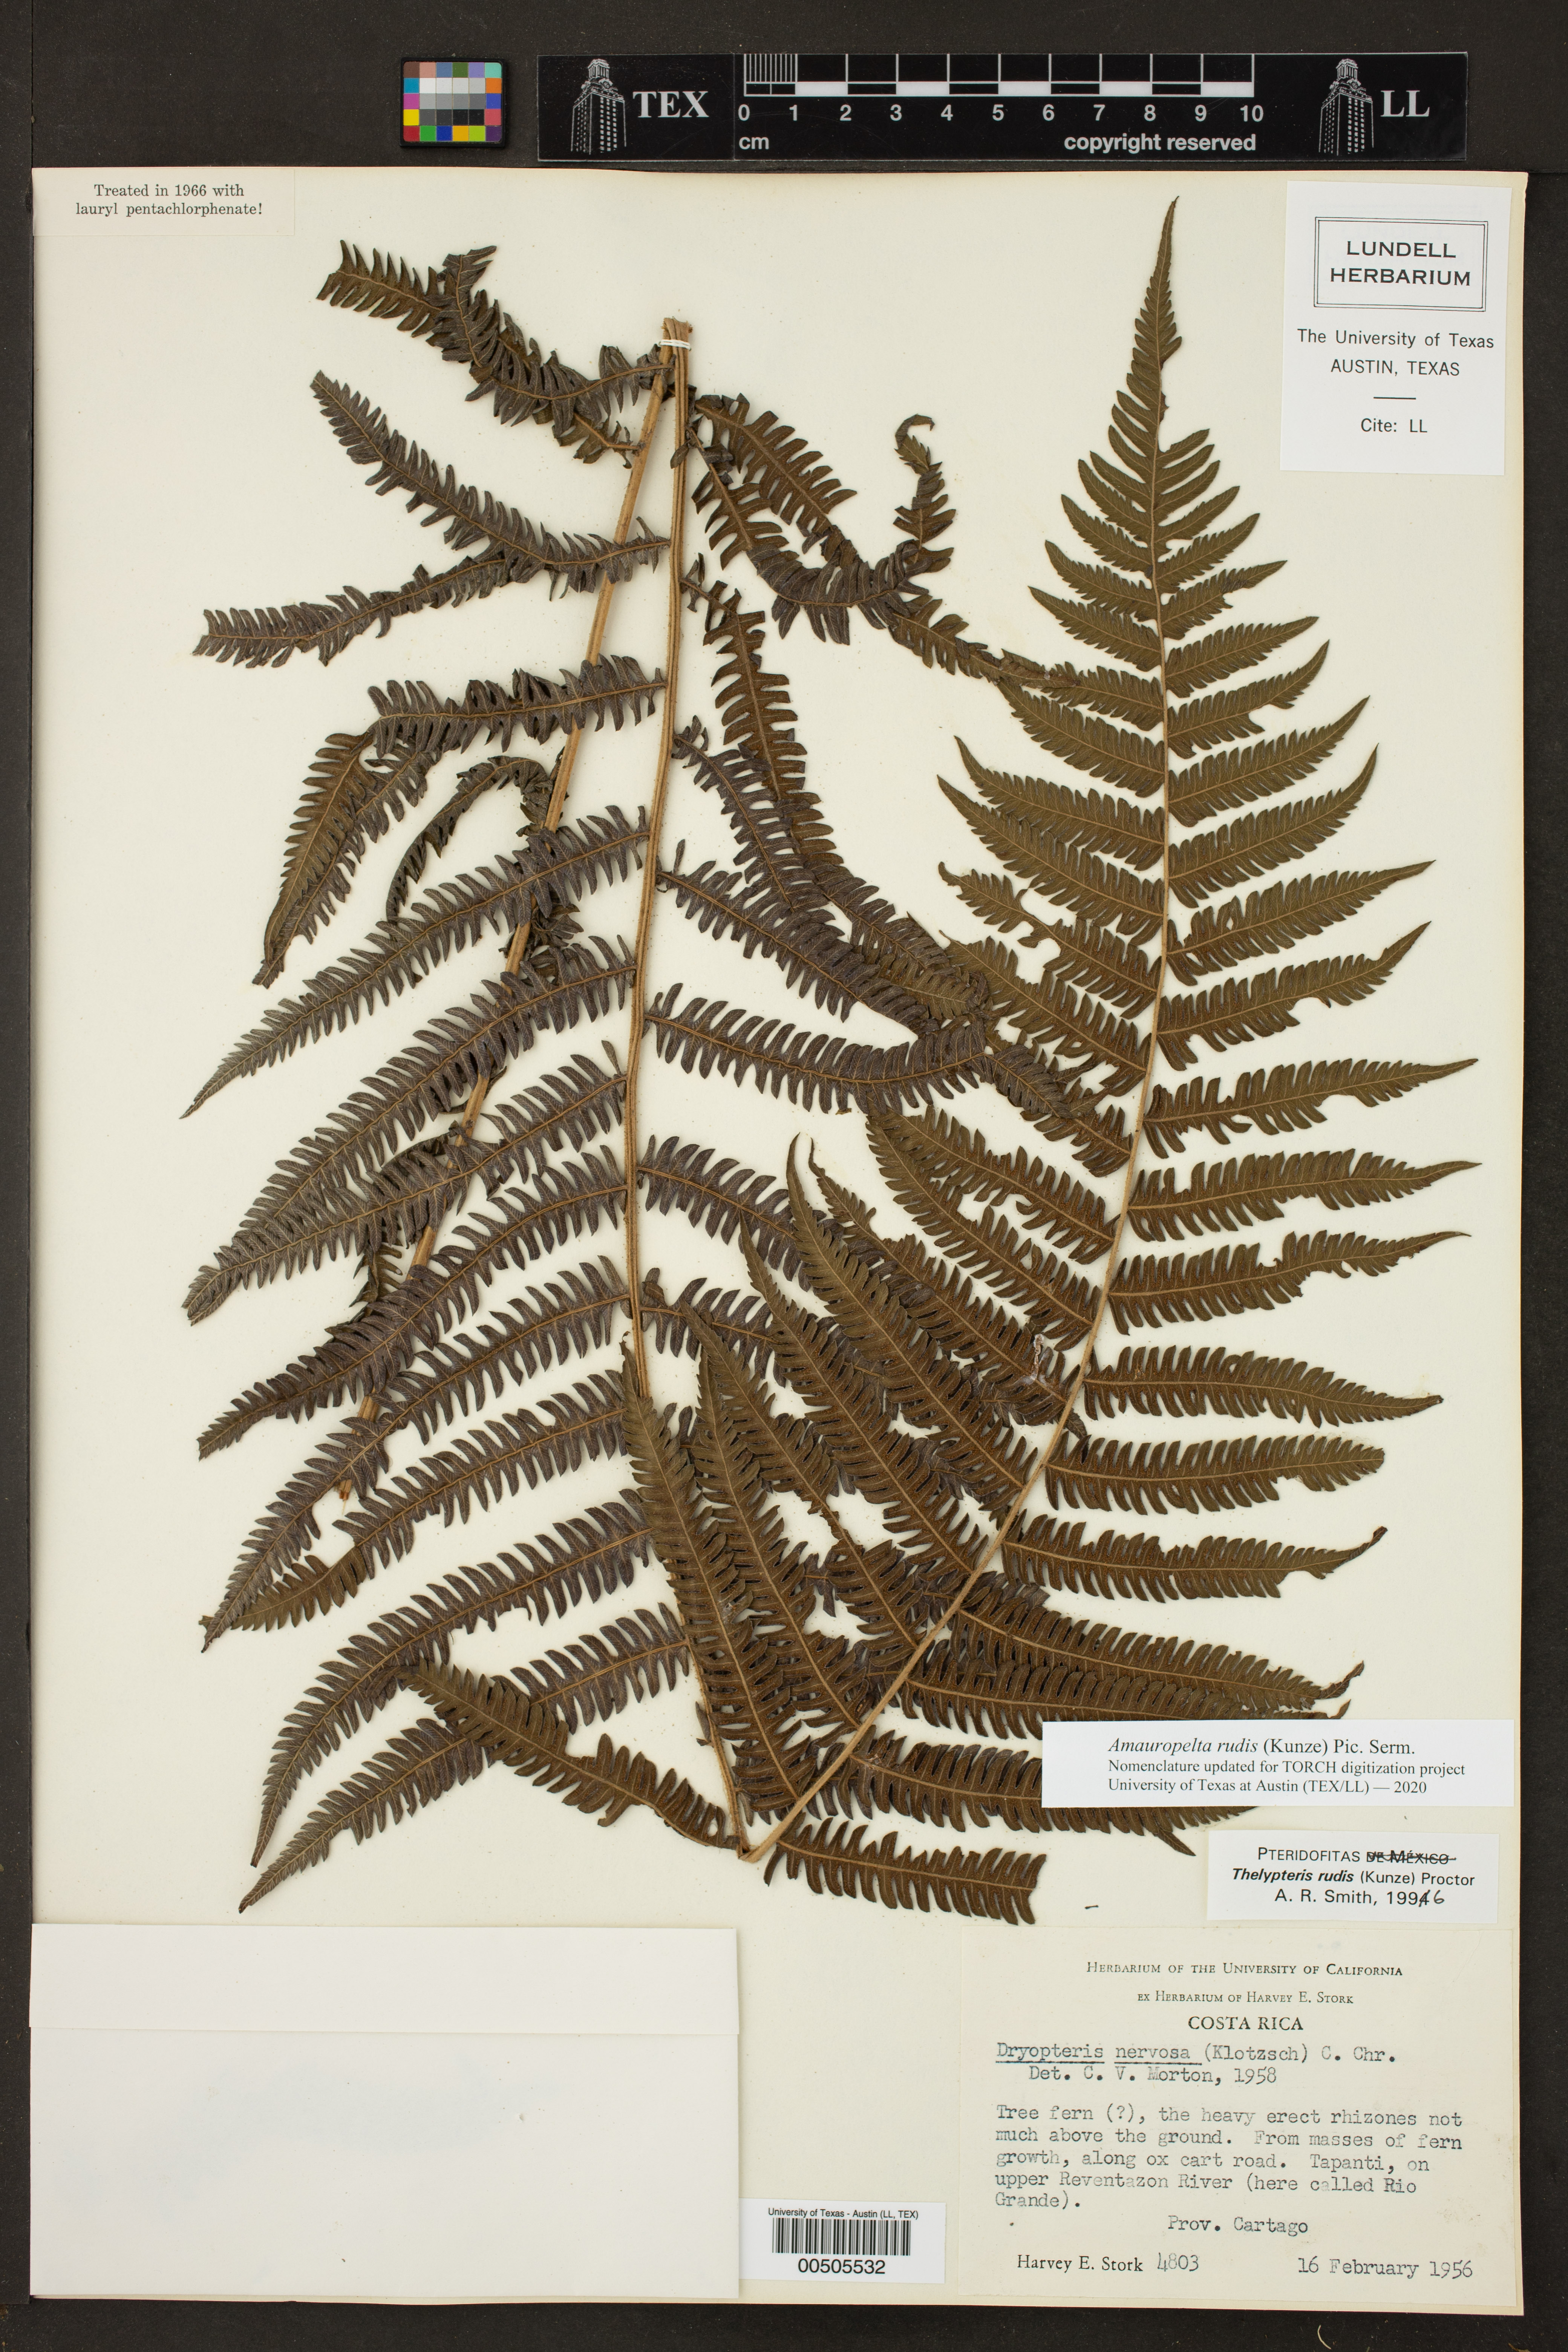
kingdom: Plantae
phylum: Tracheophyta
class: Polypodiopsida
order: Polypodiales
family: Thelypteridaceae
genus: Amauropelta
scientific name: Amauropelta rudis
